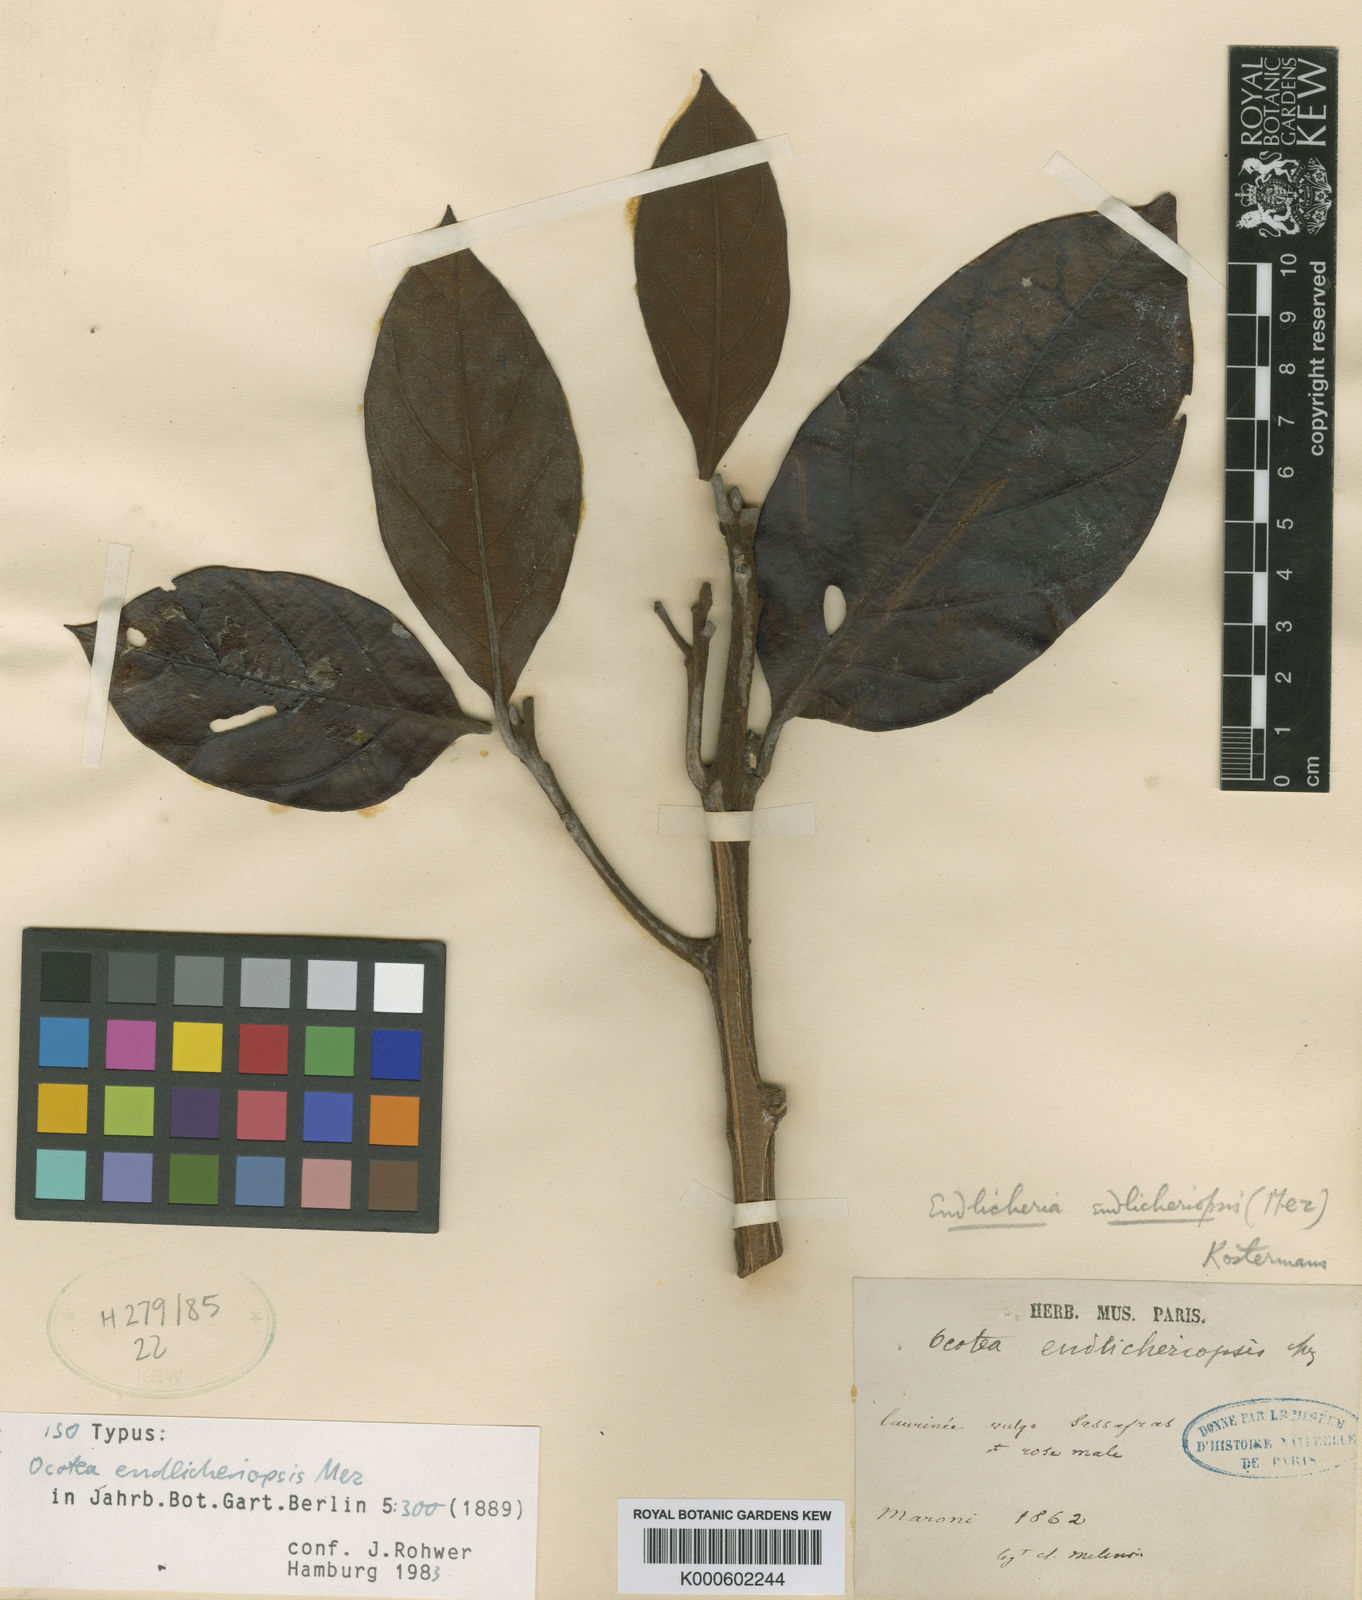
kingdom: Plantae
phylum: Tracheophyta
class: Magnoliopsida
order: Laurales
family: Lauraceae
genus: Endlicheria
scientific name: Endlicheria canescens
